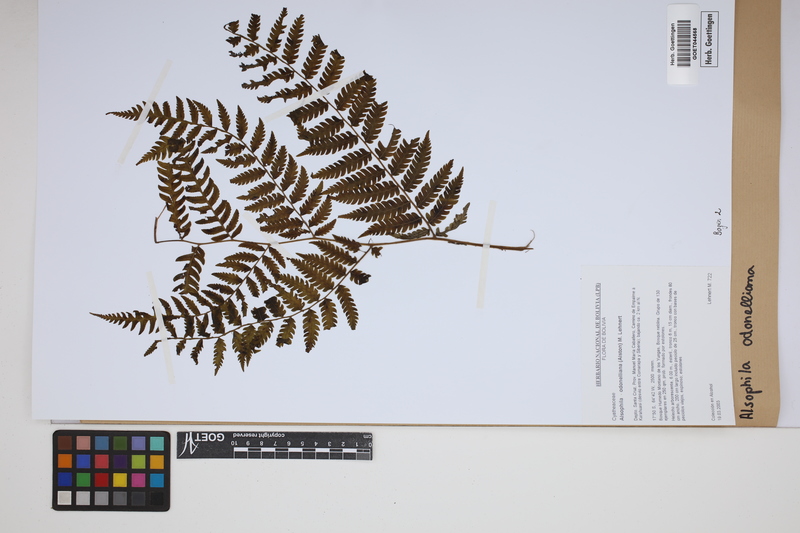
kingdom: Plantae
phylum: Tracheophyta
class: Polypodiopsida
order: Cyatheales
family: Cyatheaceae
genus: Alsophila
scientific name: Alsophila odonelliana
